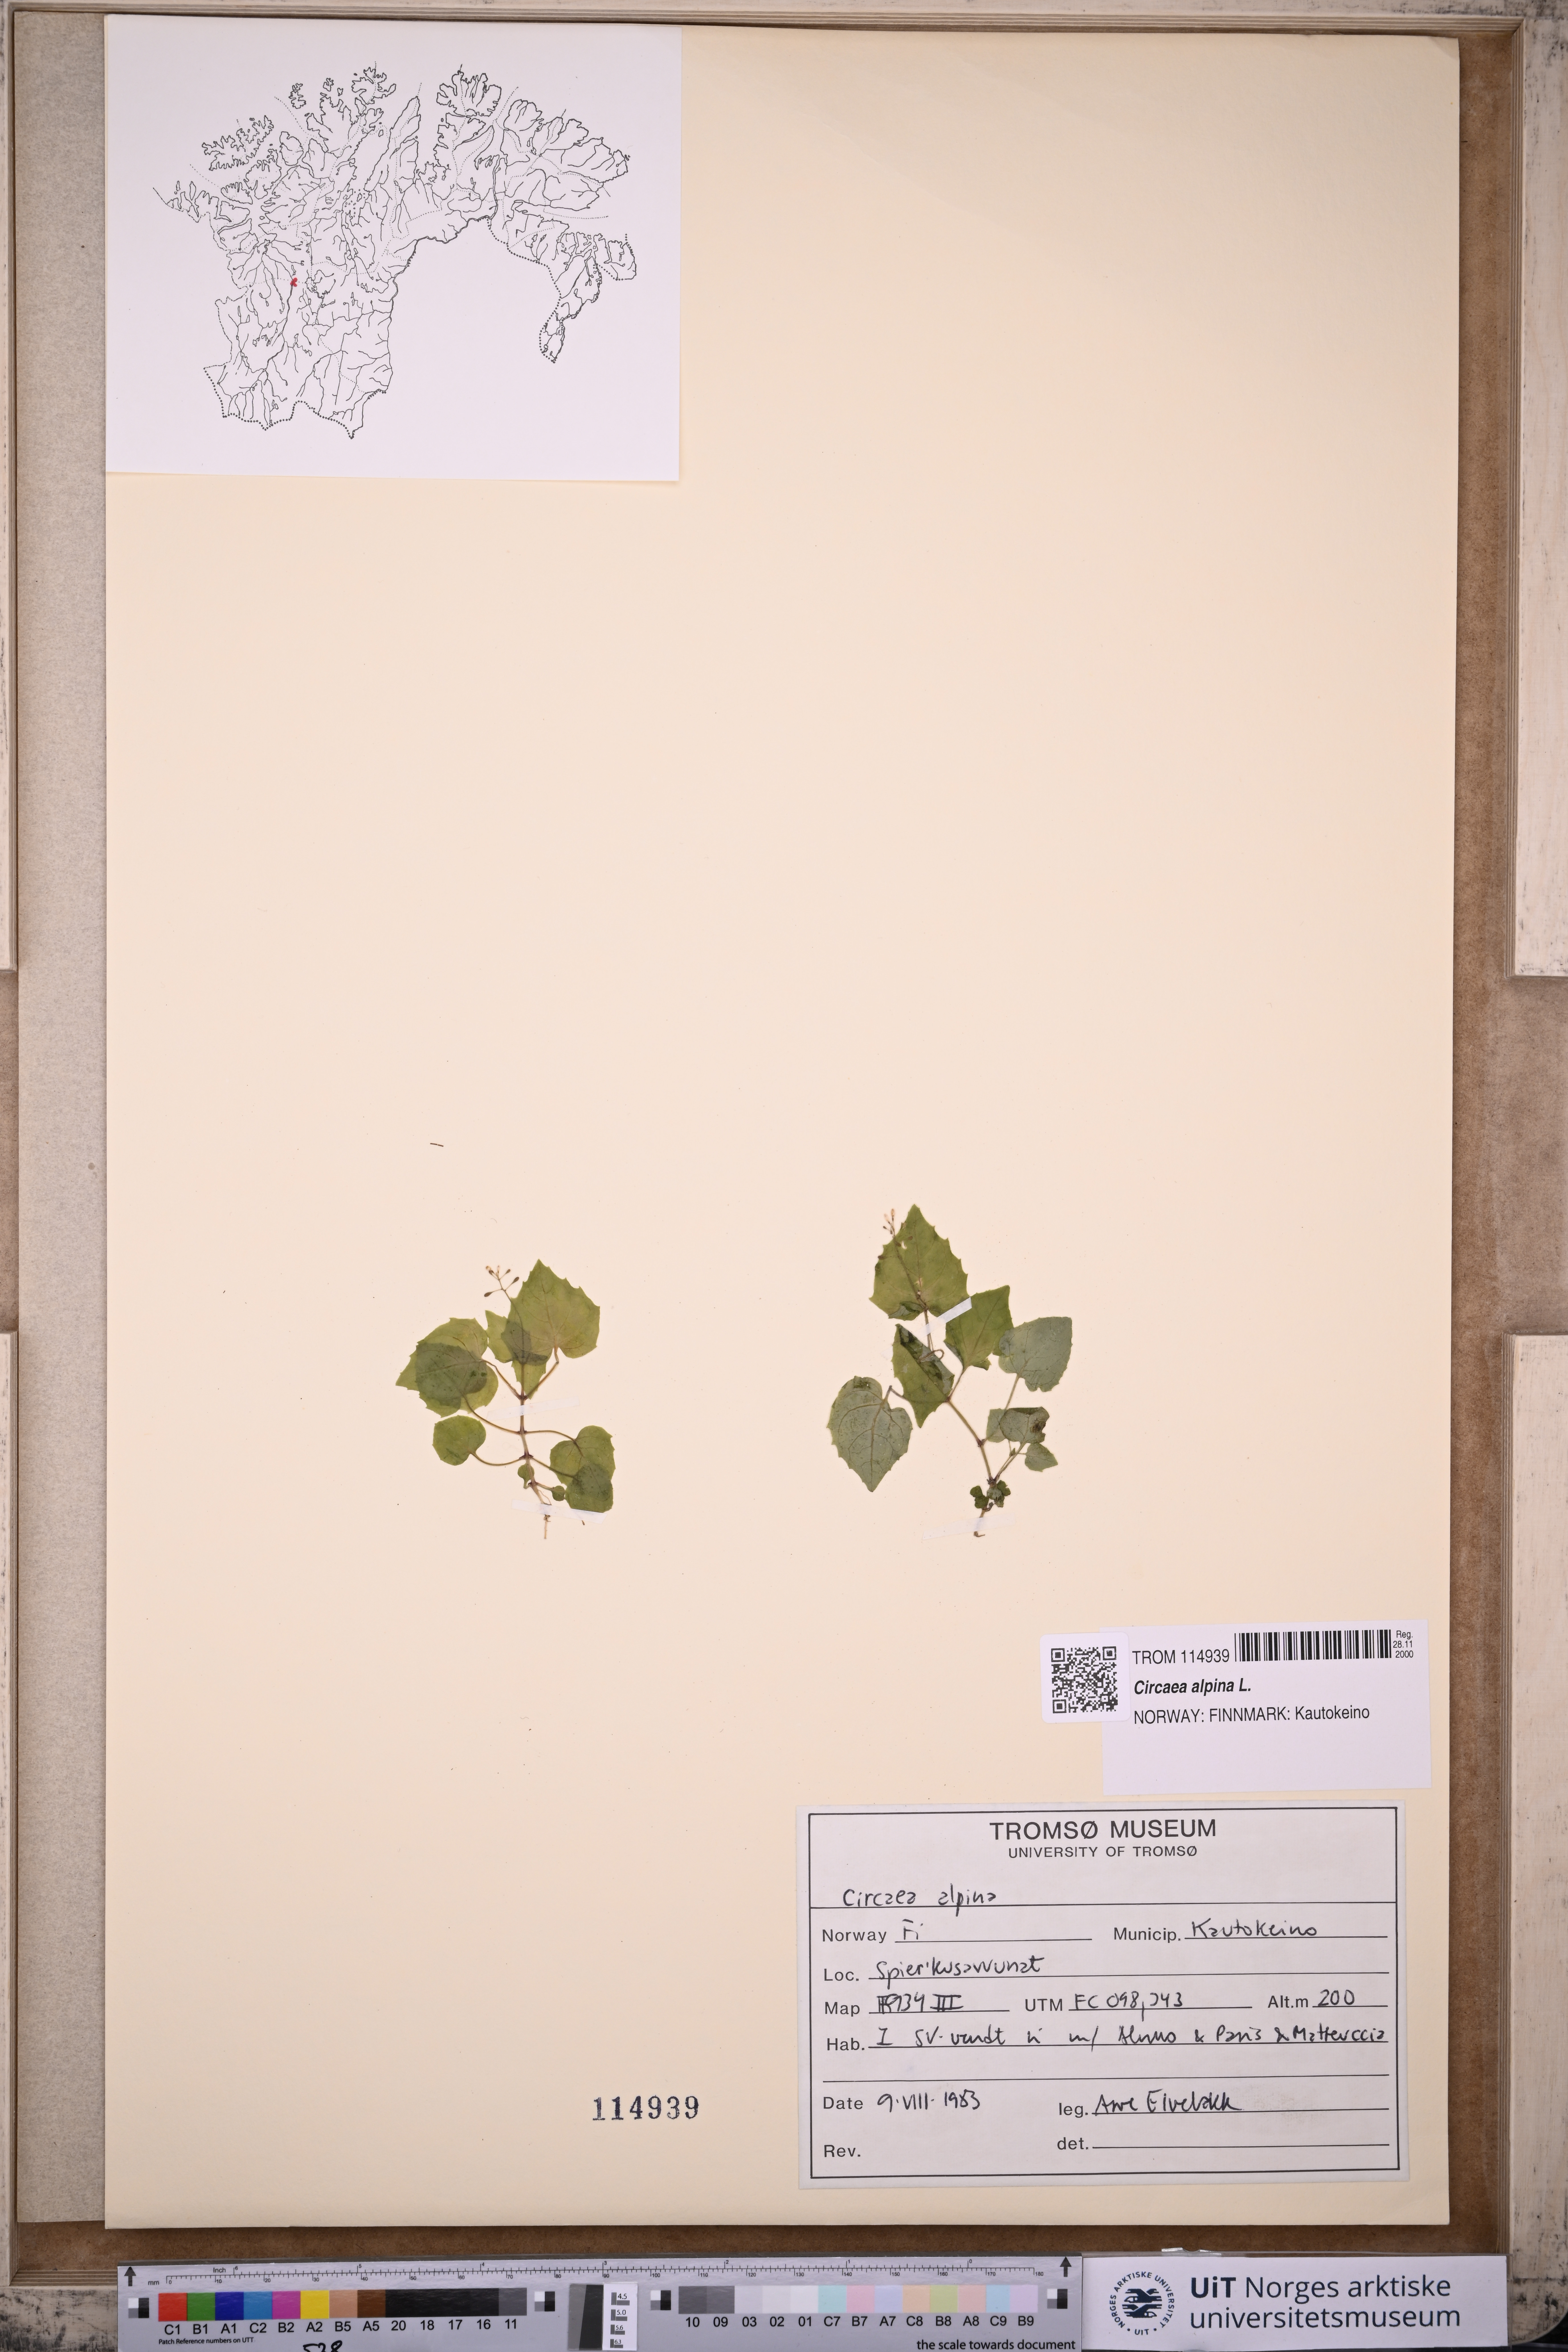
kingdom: Plantae
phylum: Tracheophyta
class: Magnoliopsida
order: Myrtales
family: Onagraceae
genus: Circaea
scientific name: Circaea alpina
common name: Alpine enchanter's-nightshade
